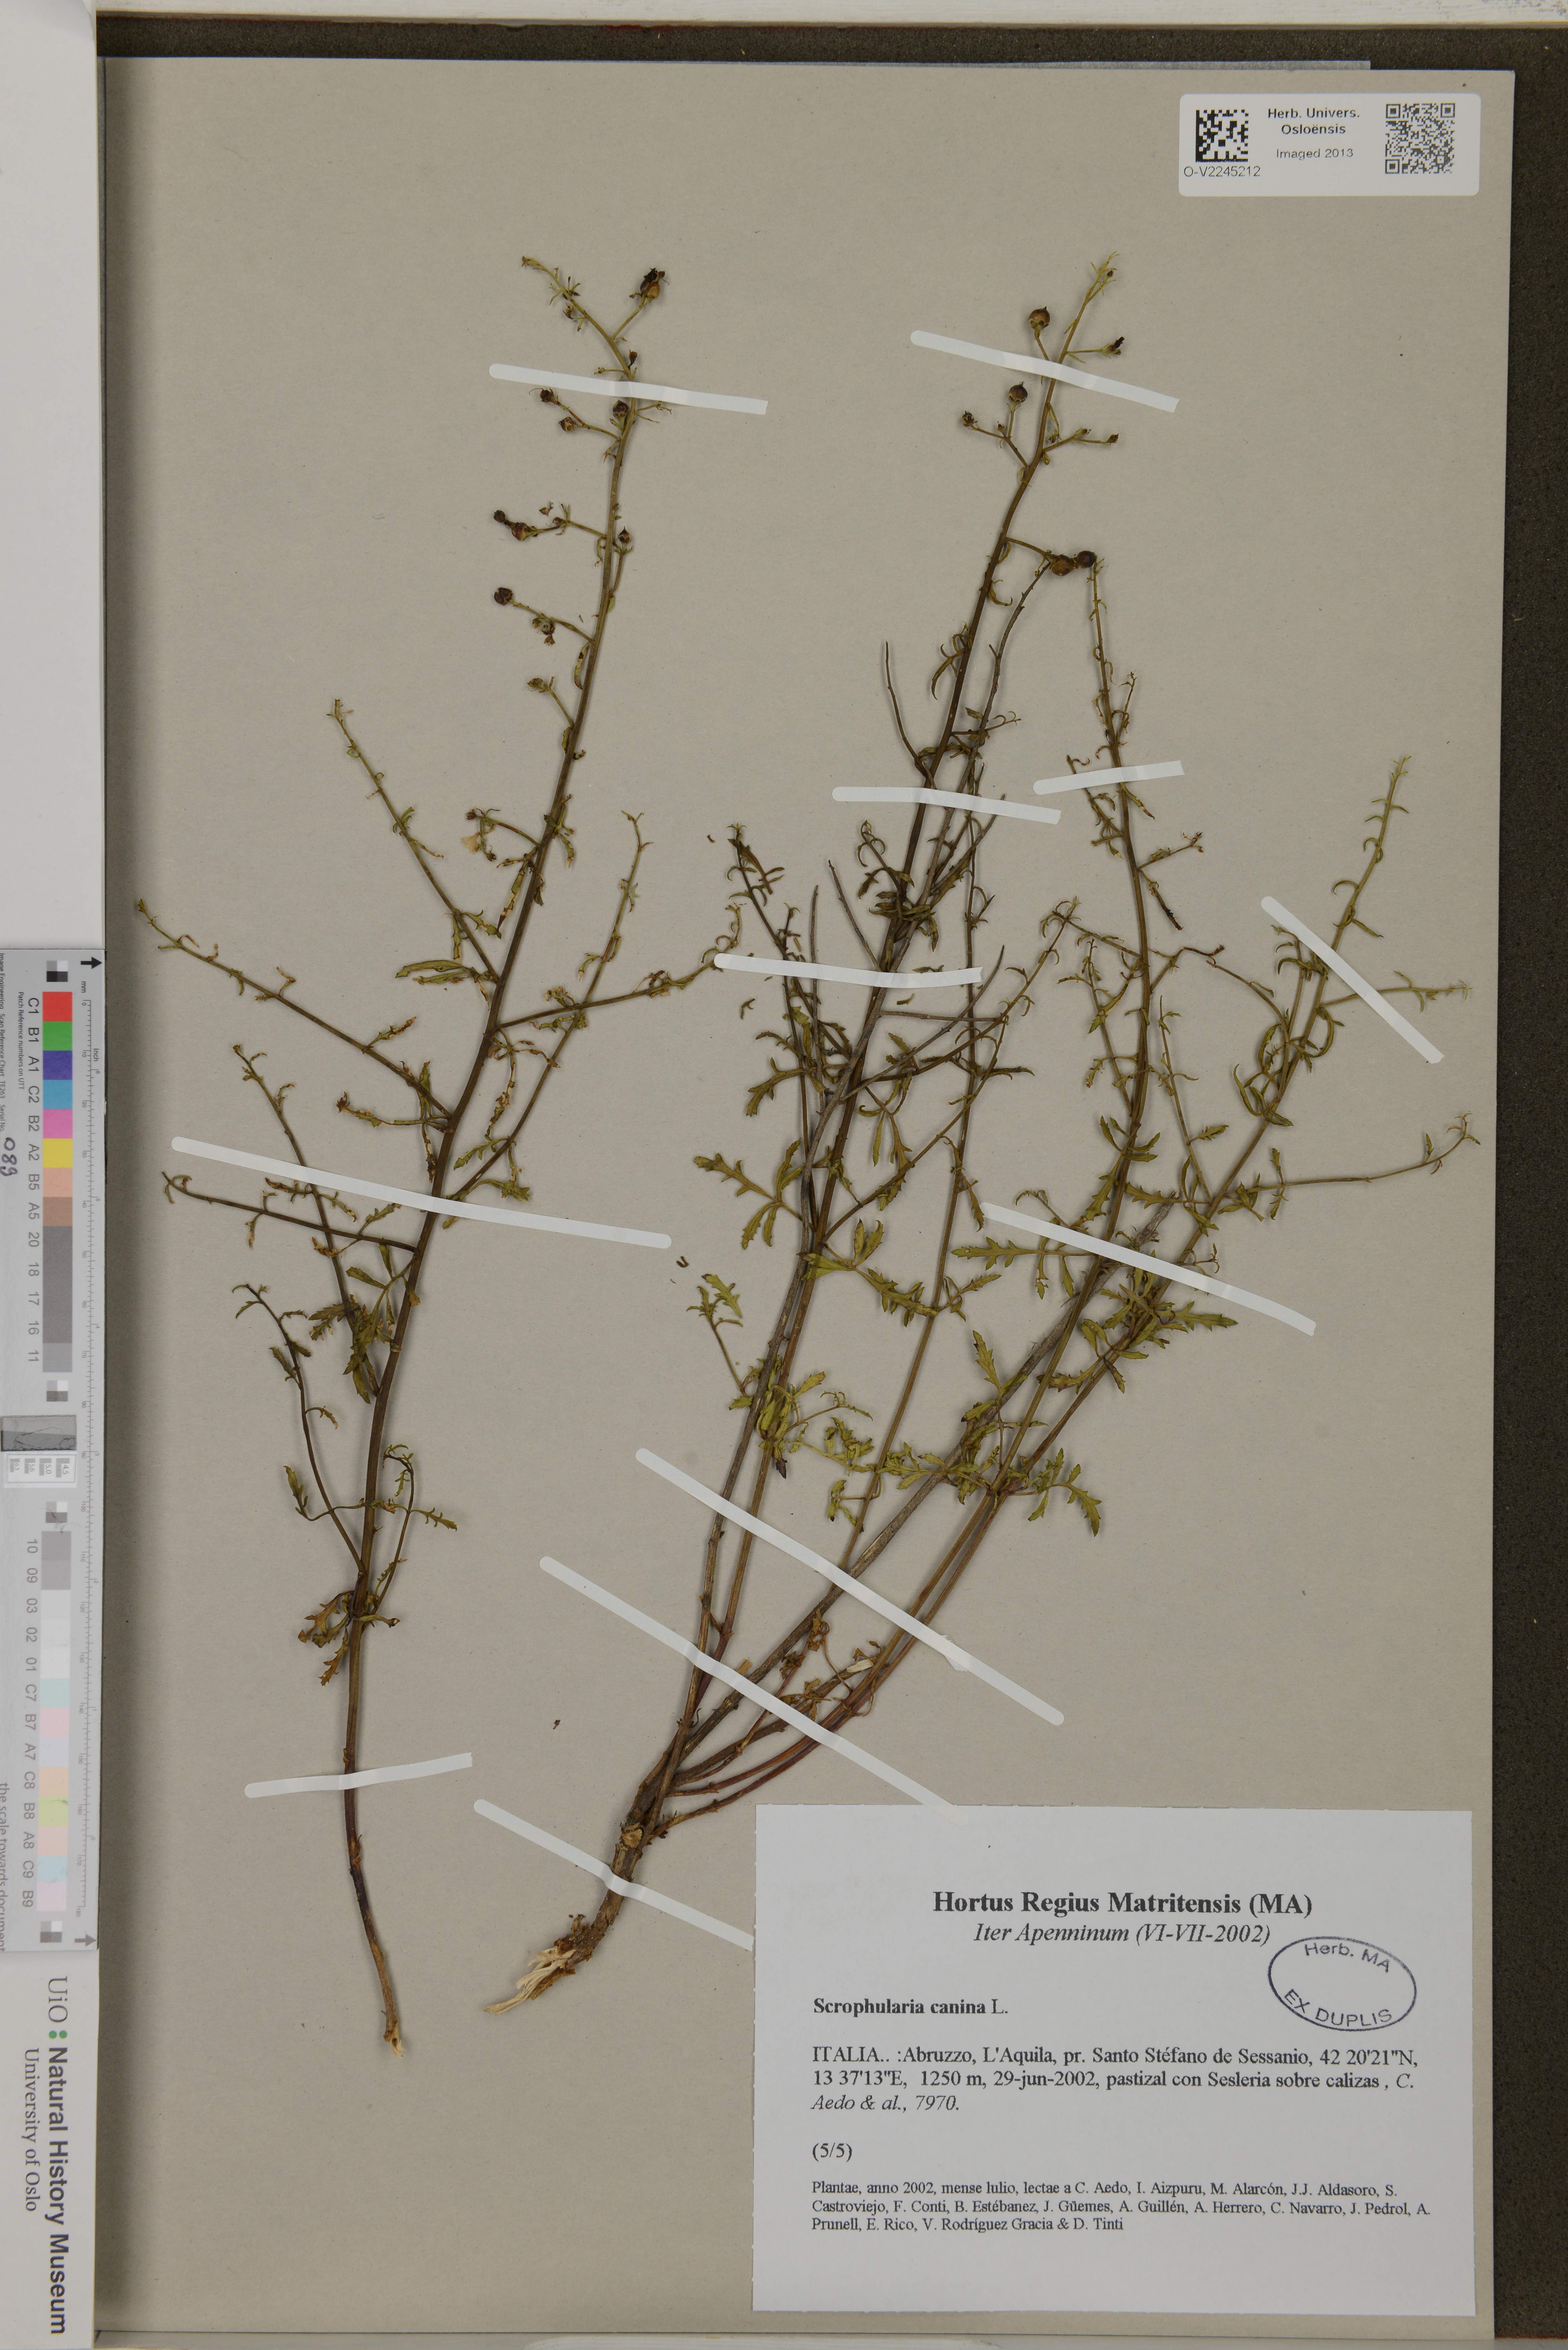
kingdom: Plantae
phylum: Tracheophyta
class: Magnoliopsida
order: Lamiales
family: Scrophulariaceae
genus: Scrophularia
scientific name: Scrophularia canina
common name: French figwort
